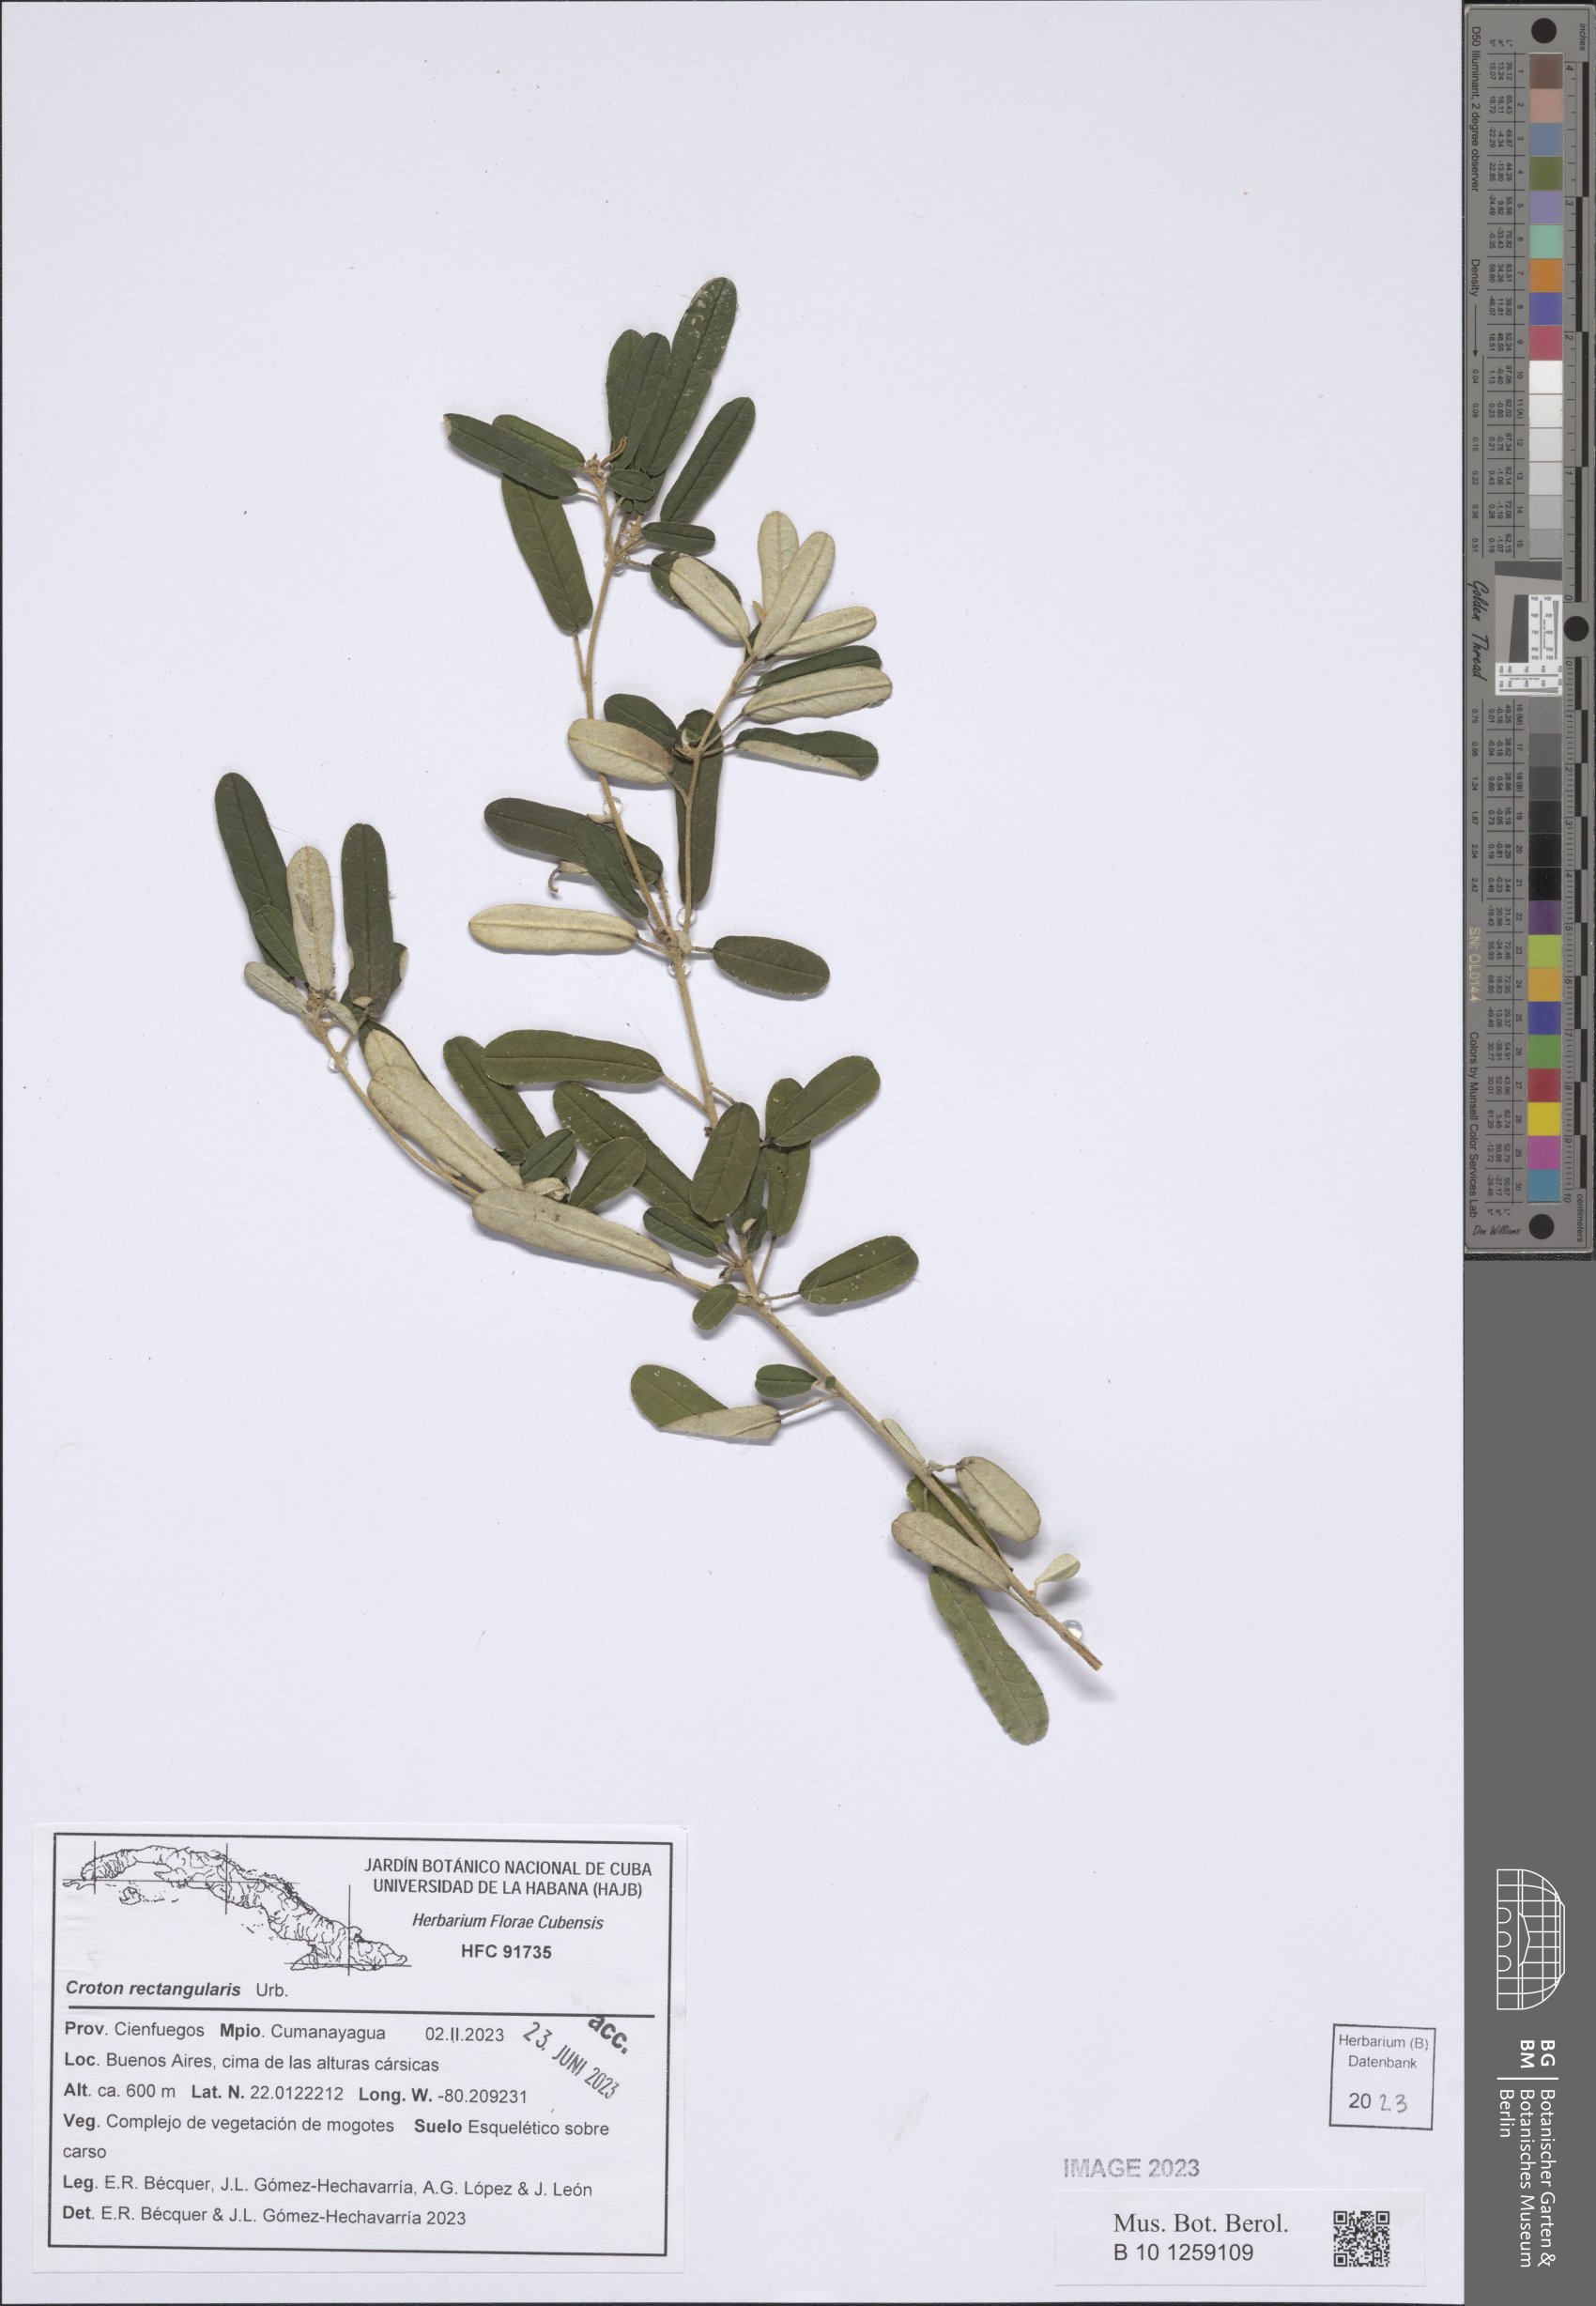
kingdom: Plantae
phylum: Tracheophyta
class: Magnoliopsida
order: Malpighiales
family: Euphorbiaceae
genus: Croton
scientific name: Croton origanifolius
